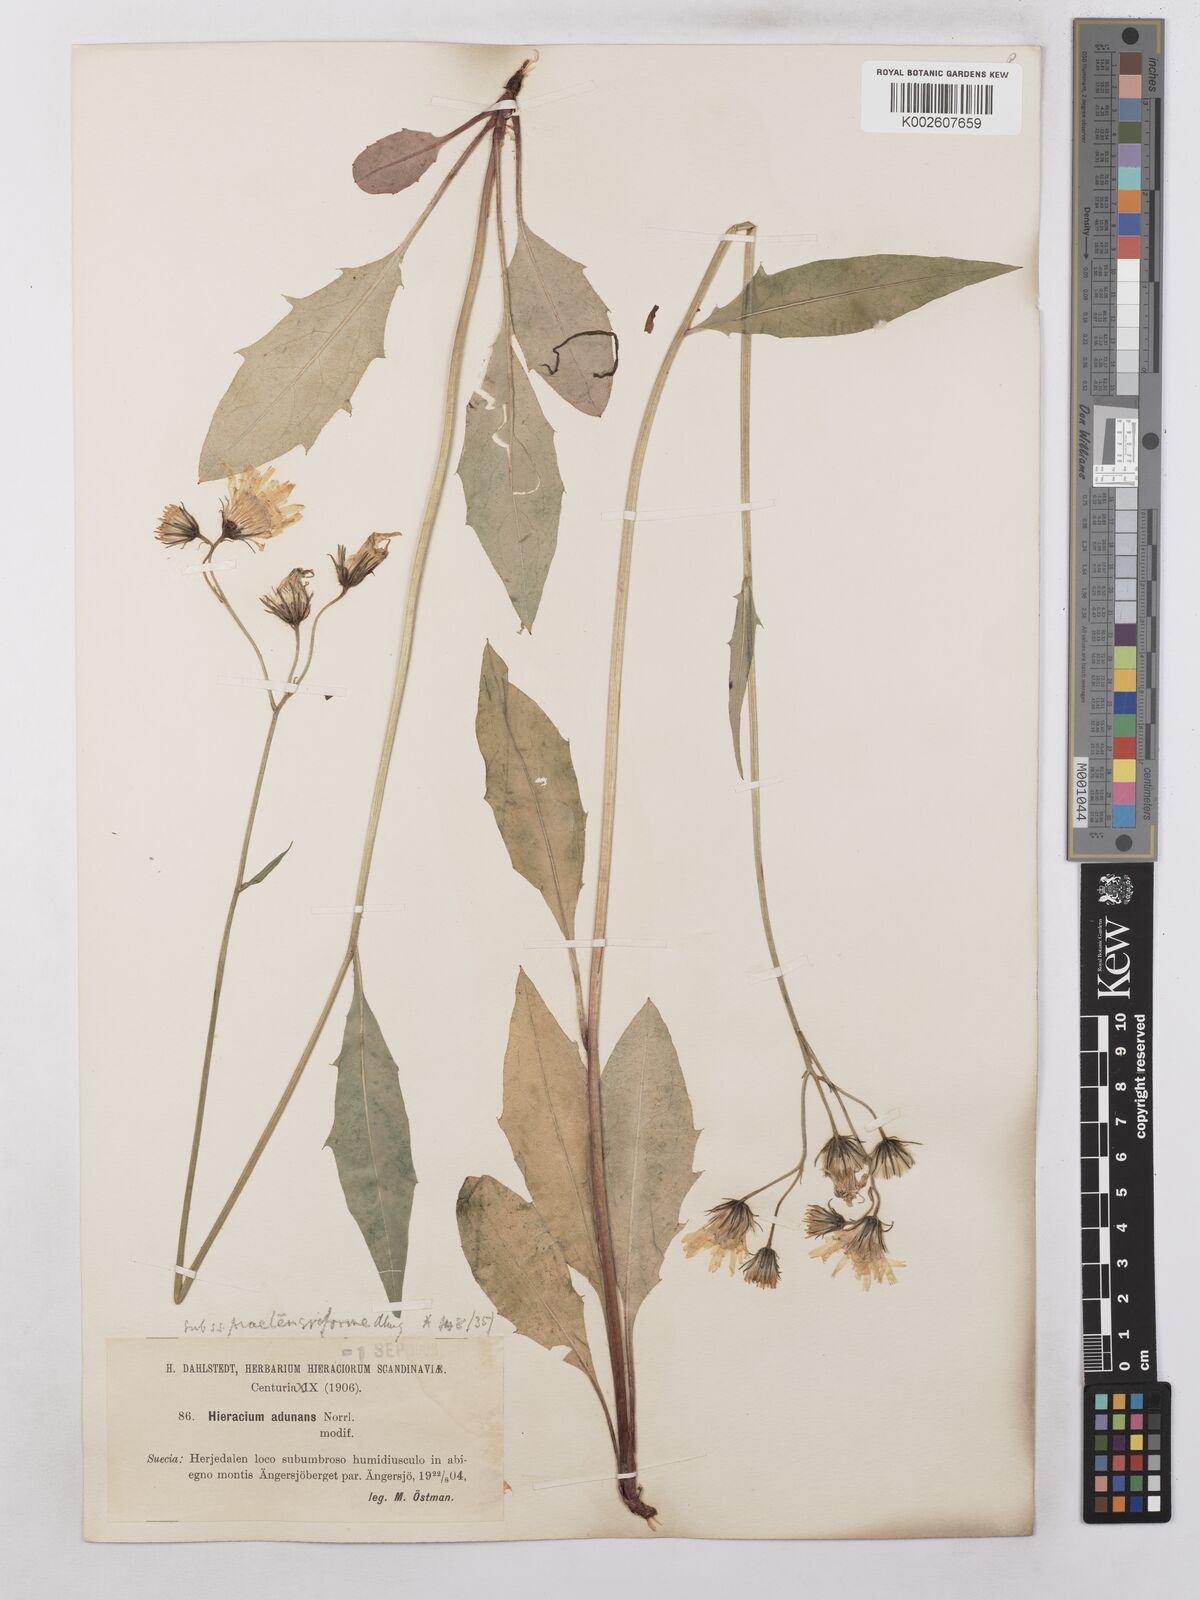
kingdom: Plantae
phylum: Tracheophyta
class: Magnoliopsida
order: Asterales
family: Asteraceae
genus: Hieracium
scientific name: Hieracium subramosum
